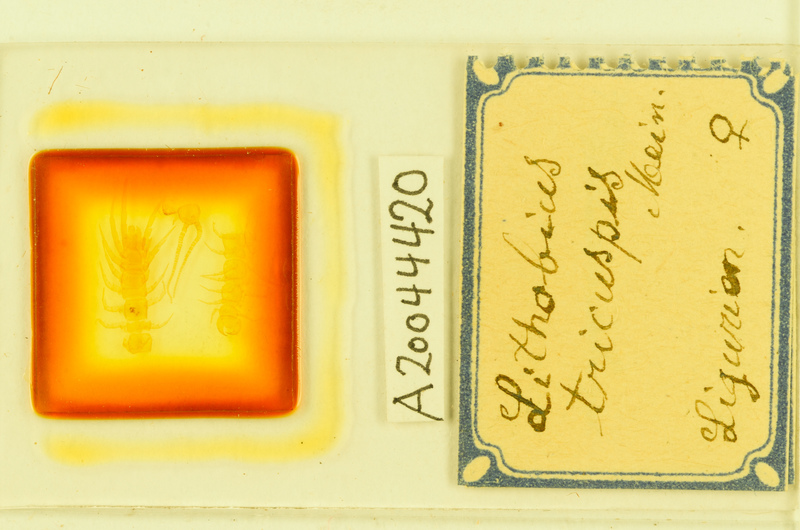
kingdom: Animalia
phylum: Arthropoda
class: Chilopoda
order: Lithobiomorpha
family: Lithobiidae
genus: Lithobius
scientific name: Lithobius tricuspis
